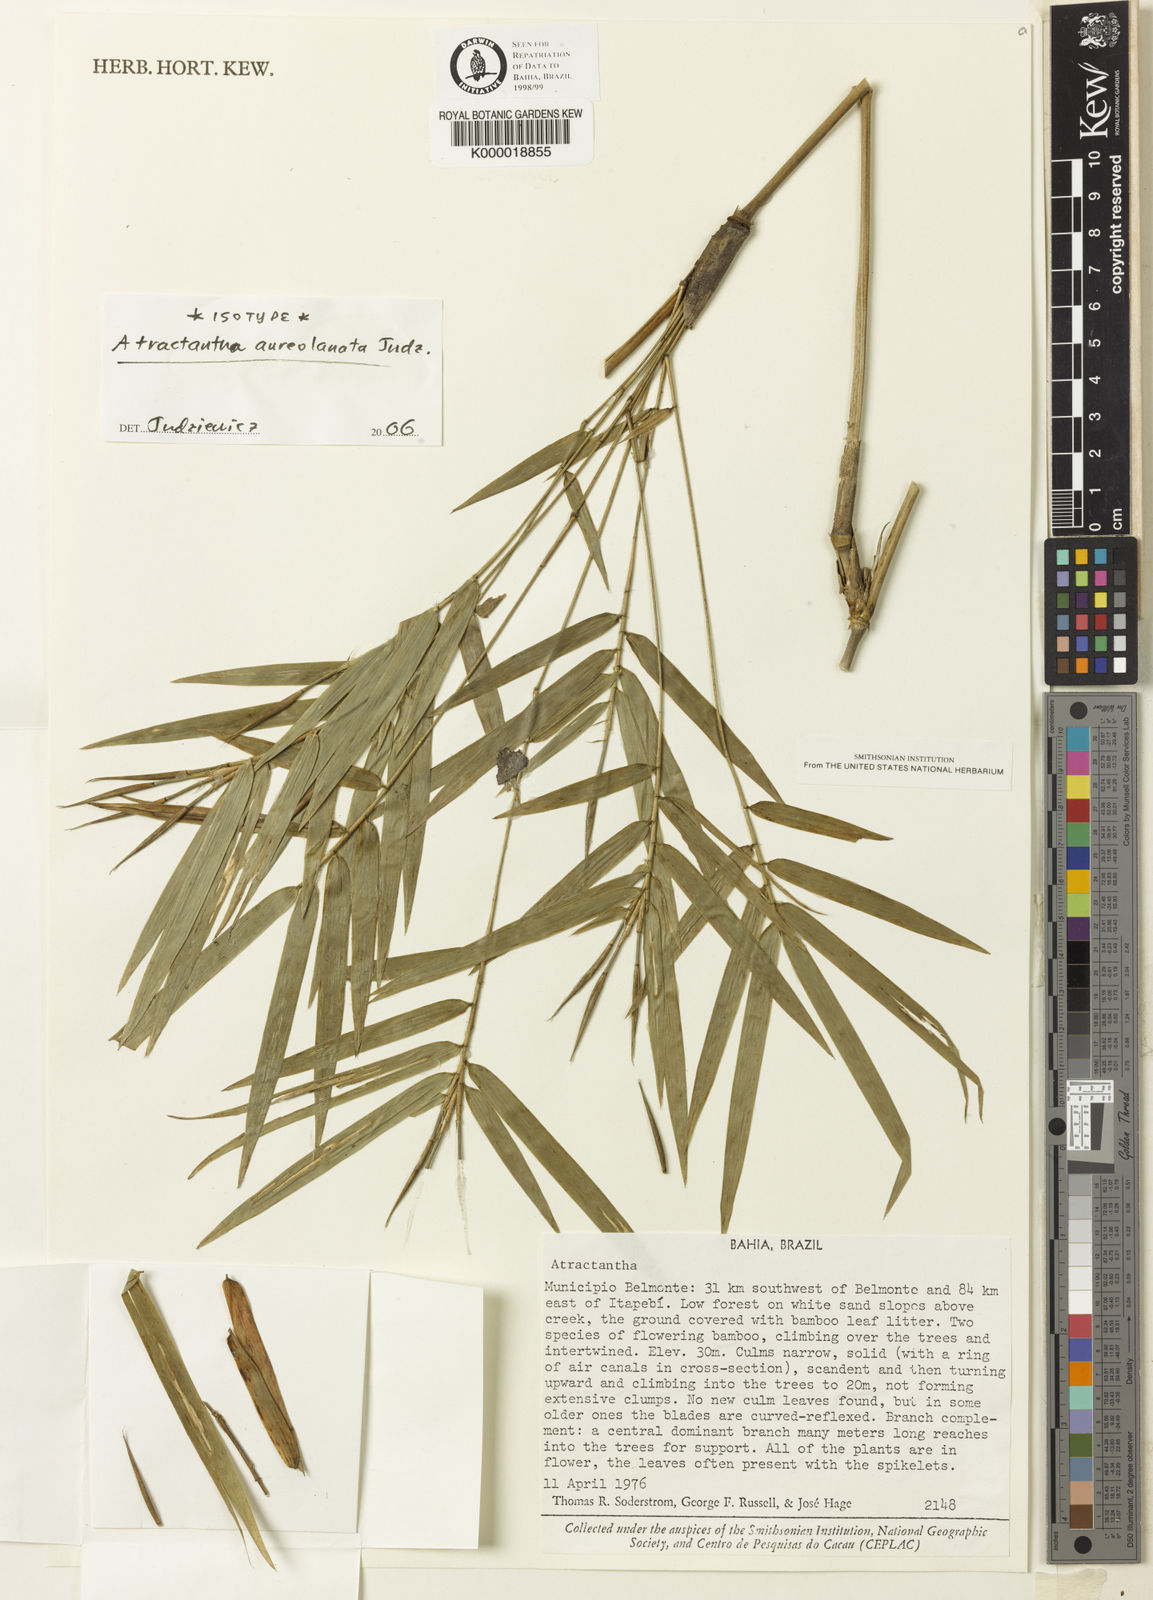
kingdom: Plantae
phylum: Tracheophyta
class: Liliopsida
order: Poales
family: Poaceae
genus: Atractantha
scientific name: Atractantha aureolanata
